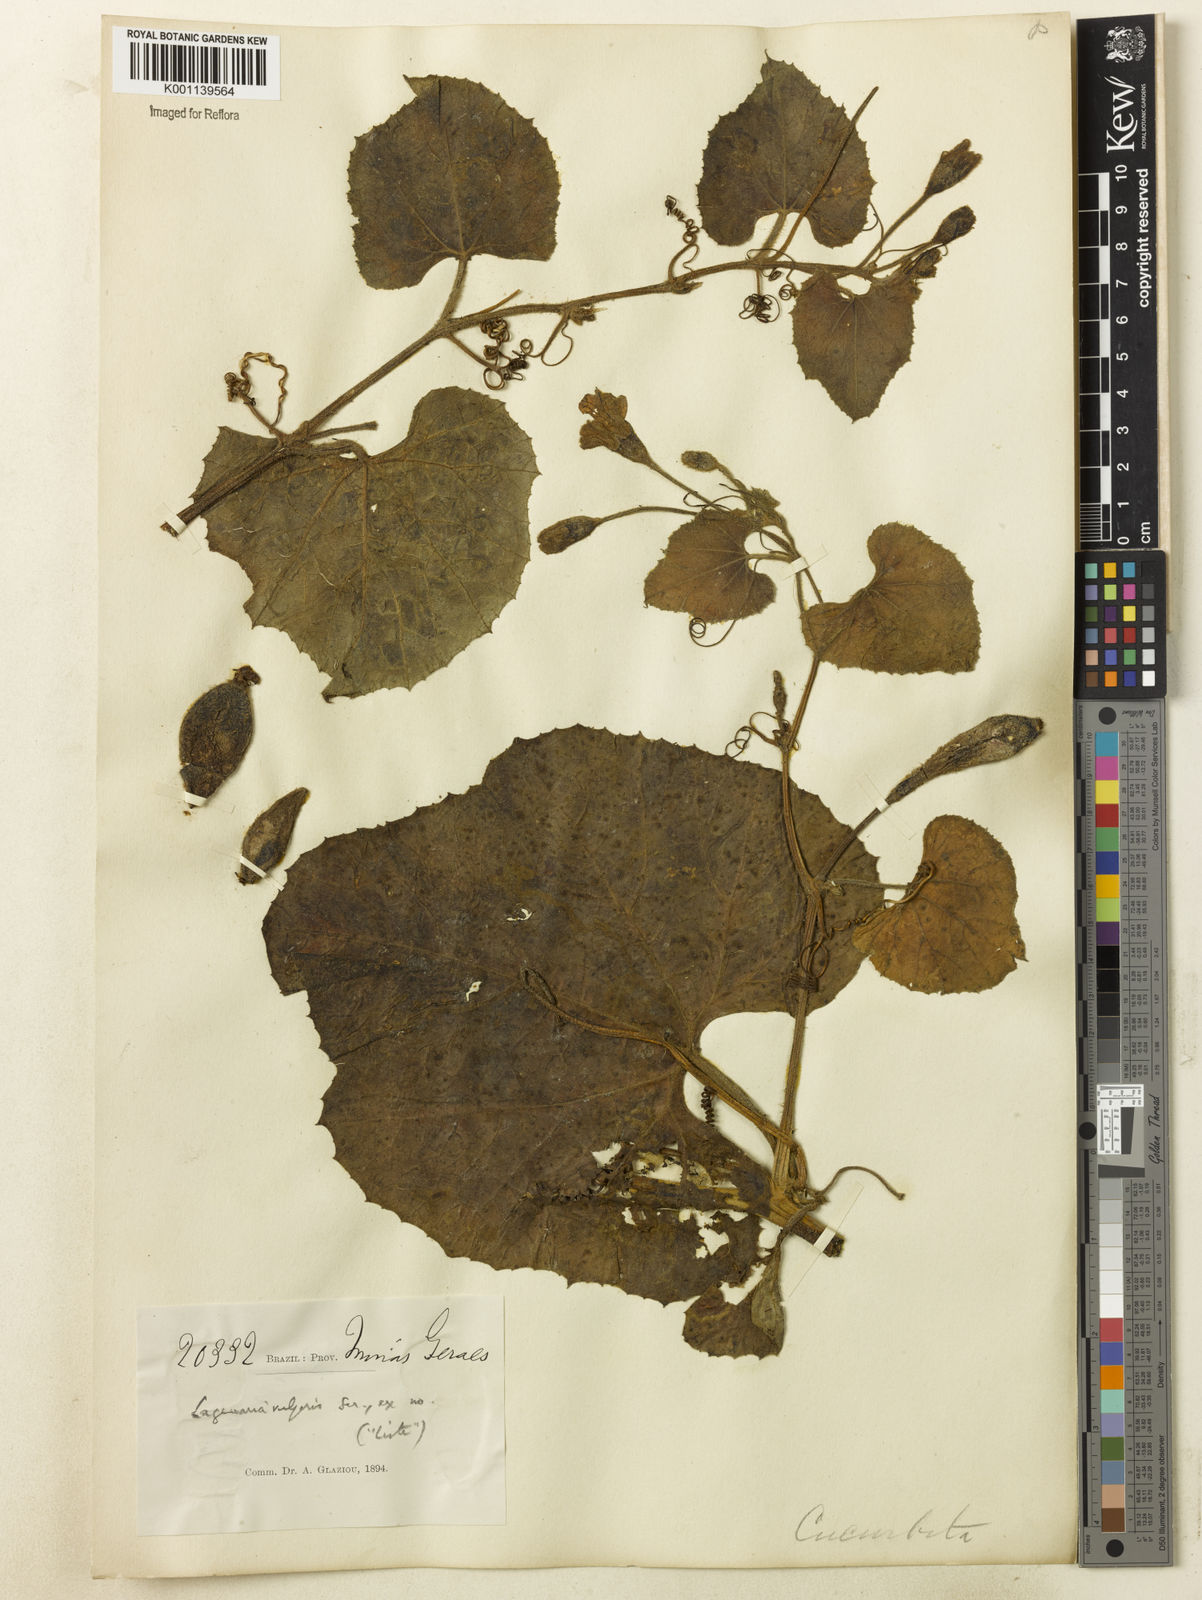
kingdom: Plantae
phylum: Tracheophyta
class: Magnoliopsida
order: Cucurbitales
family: Cucurbitaceae
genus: Lagenaria
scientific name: Lagenaria siceraria
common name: Bottle gourd
